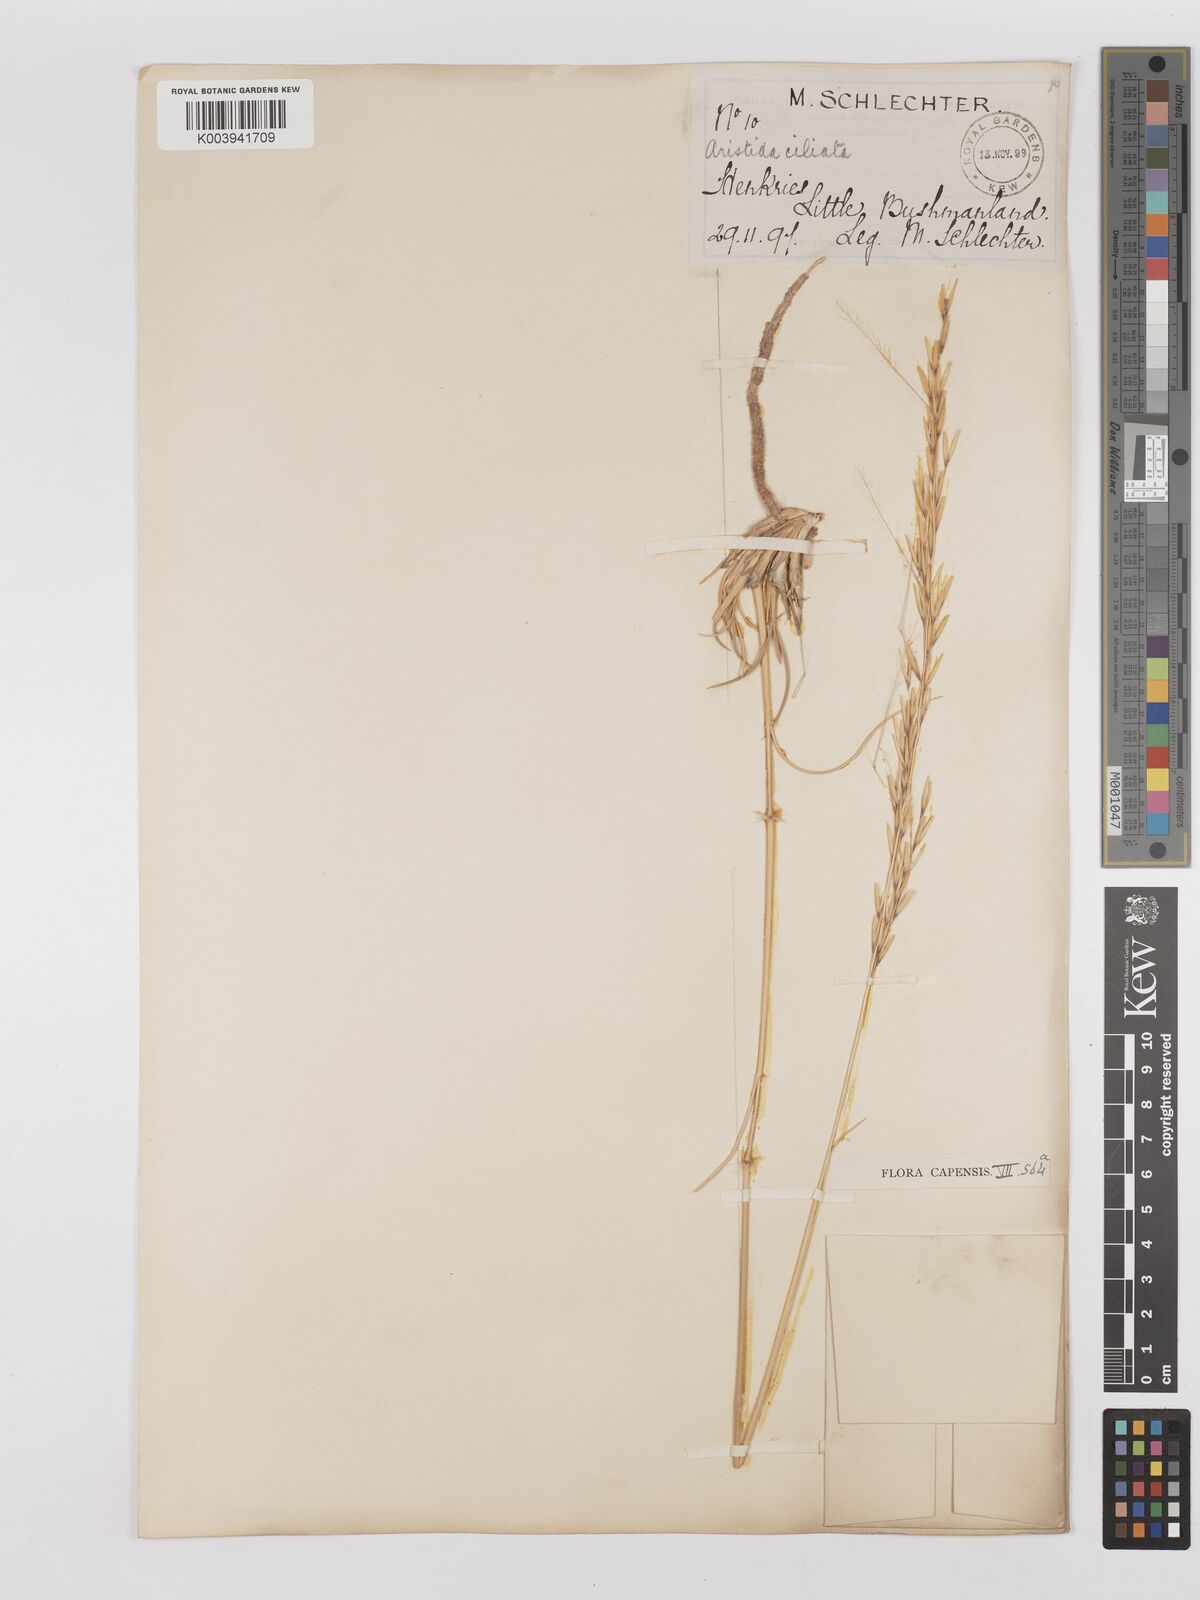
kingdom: Plantae
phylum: Tracheophyta
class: Liliopsida
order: Poales
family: Poaceae
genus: Stipagrostis
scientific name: Stipagrostis ciliata
